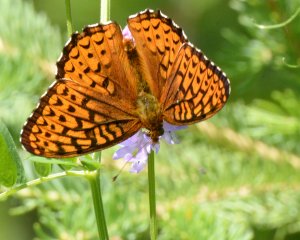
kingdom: Animalia
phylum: Arthropoda
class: Insecta
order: Lepidoptera
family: Nymphalidae
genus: Speyeria
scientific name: Speyeria atlantis
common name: Atlantis Fritillary
